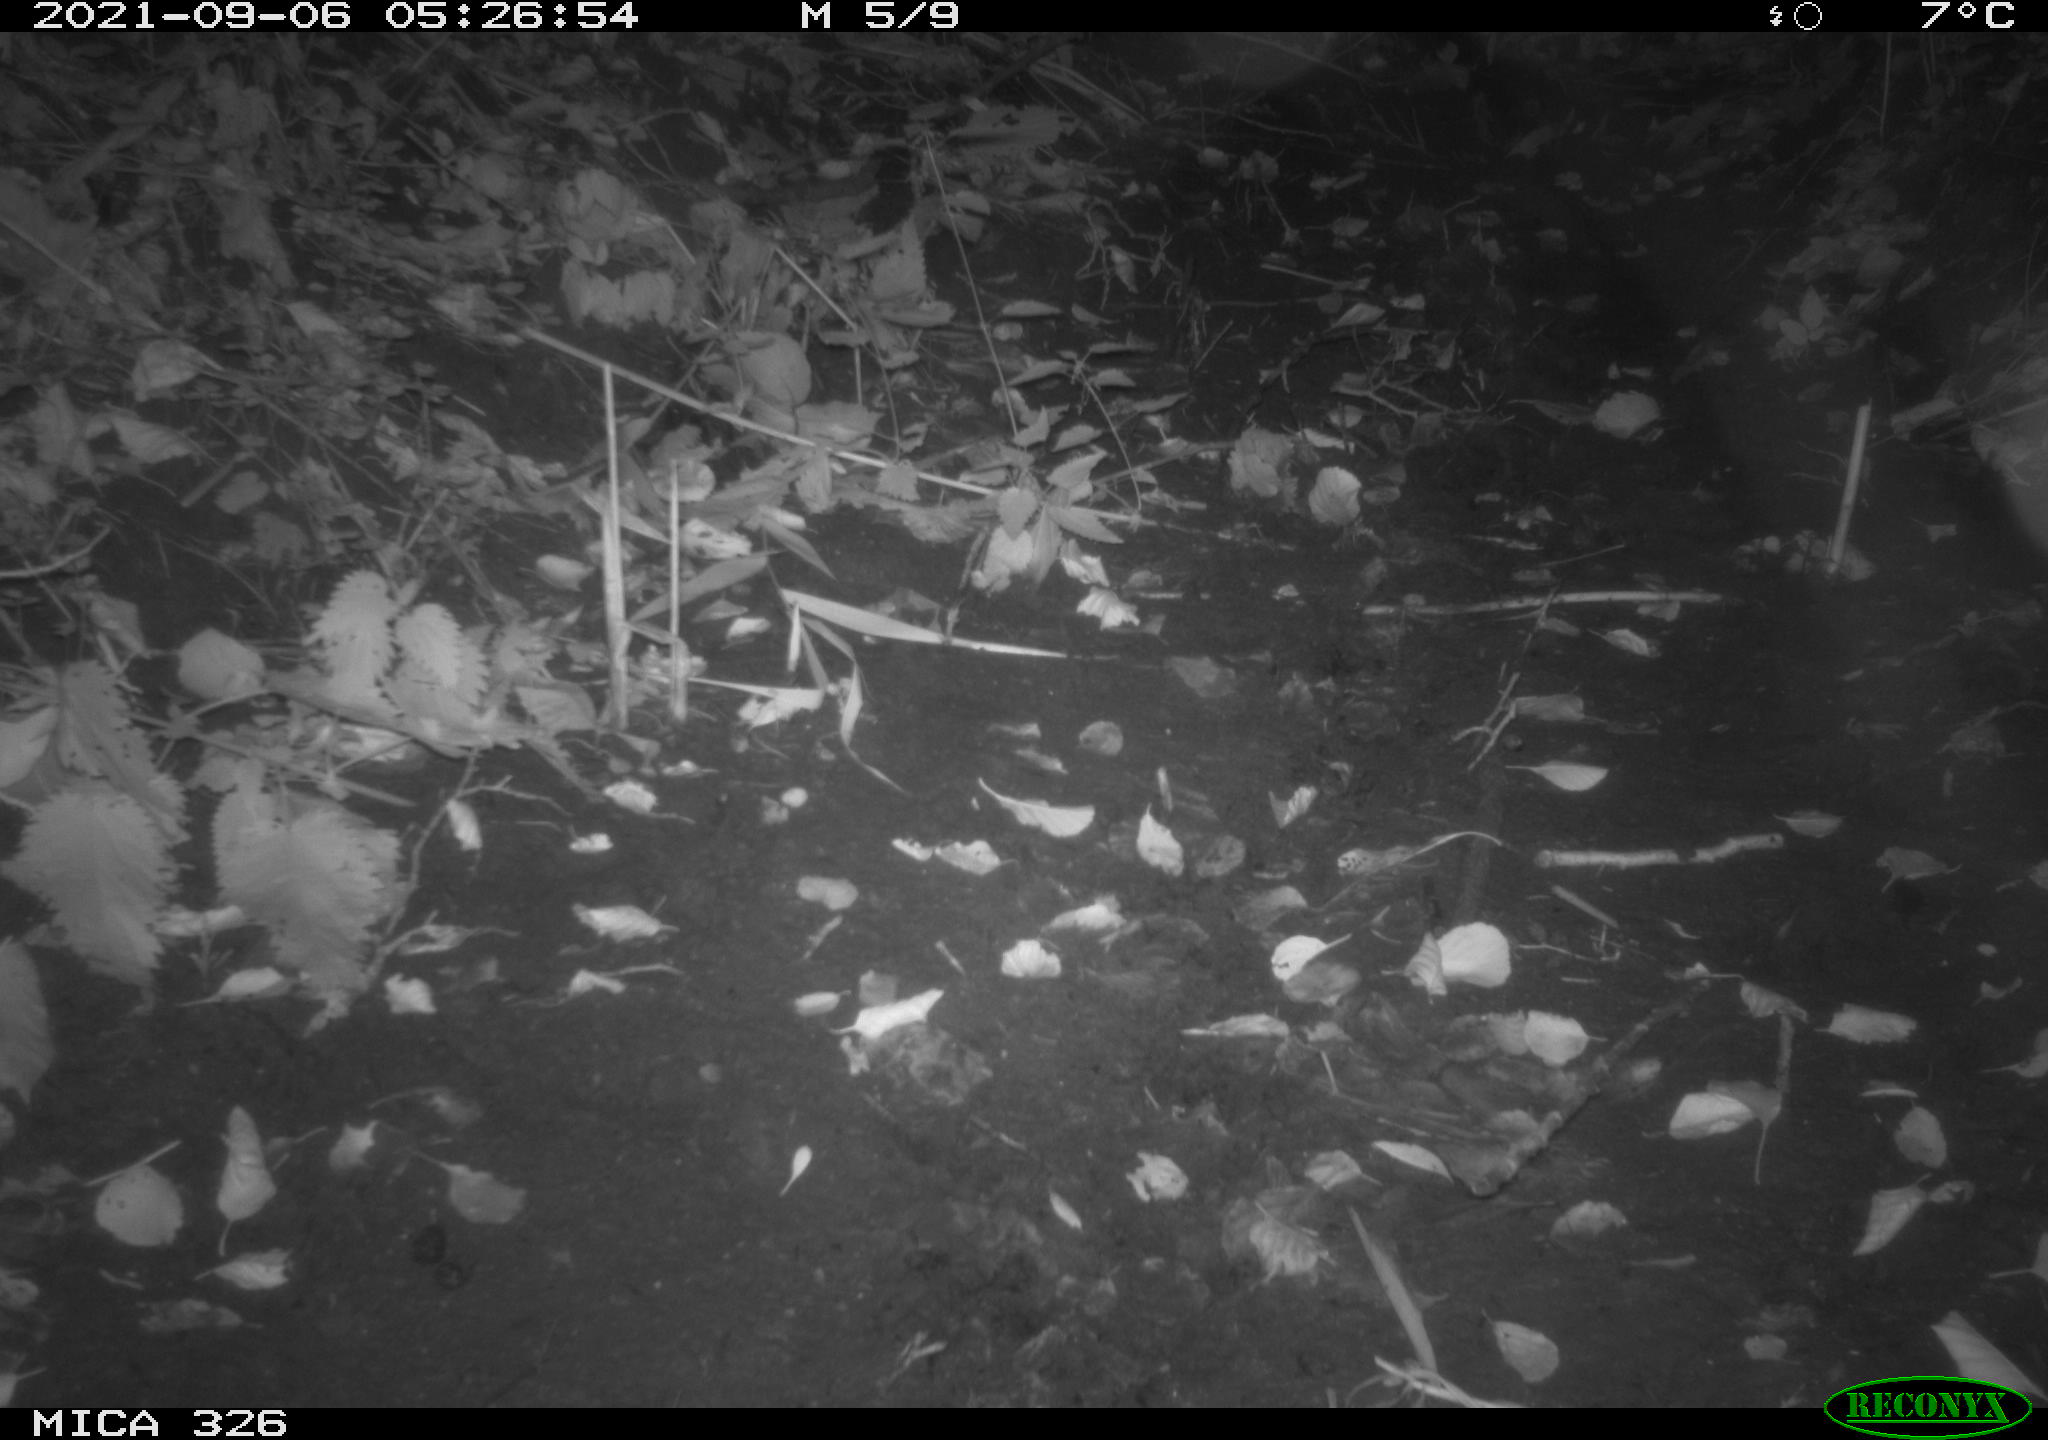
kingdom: Animalia
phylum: Chordata
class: Mammalia
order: Rodentia
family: Myocastoridae
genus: Myocastor
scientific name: Myocastor coypus
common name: Coypu
